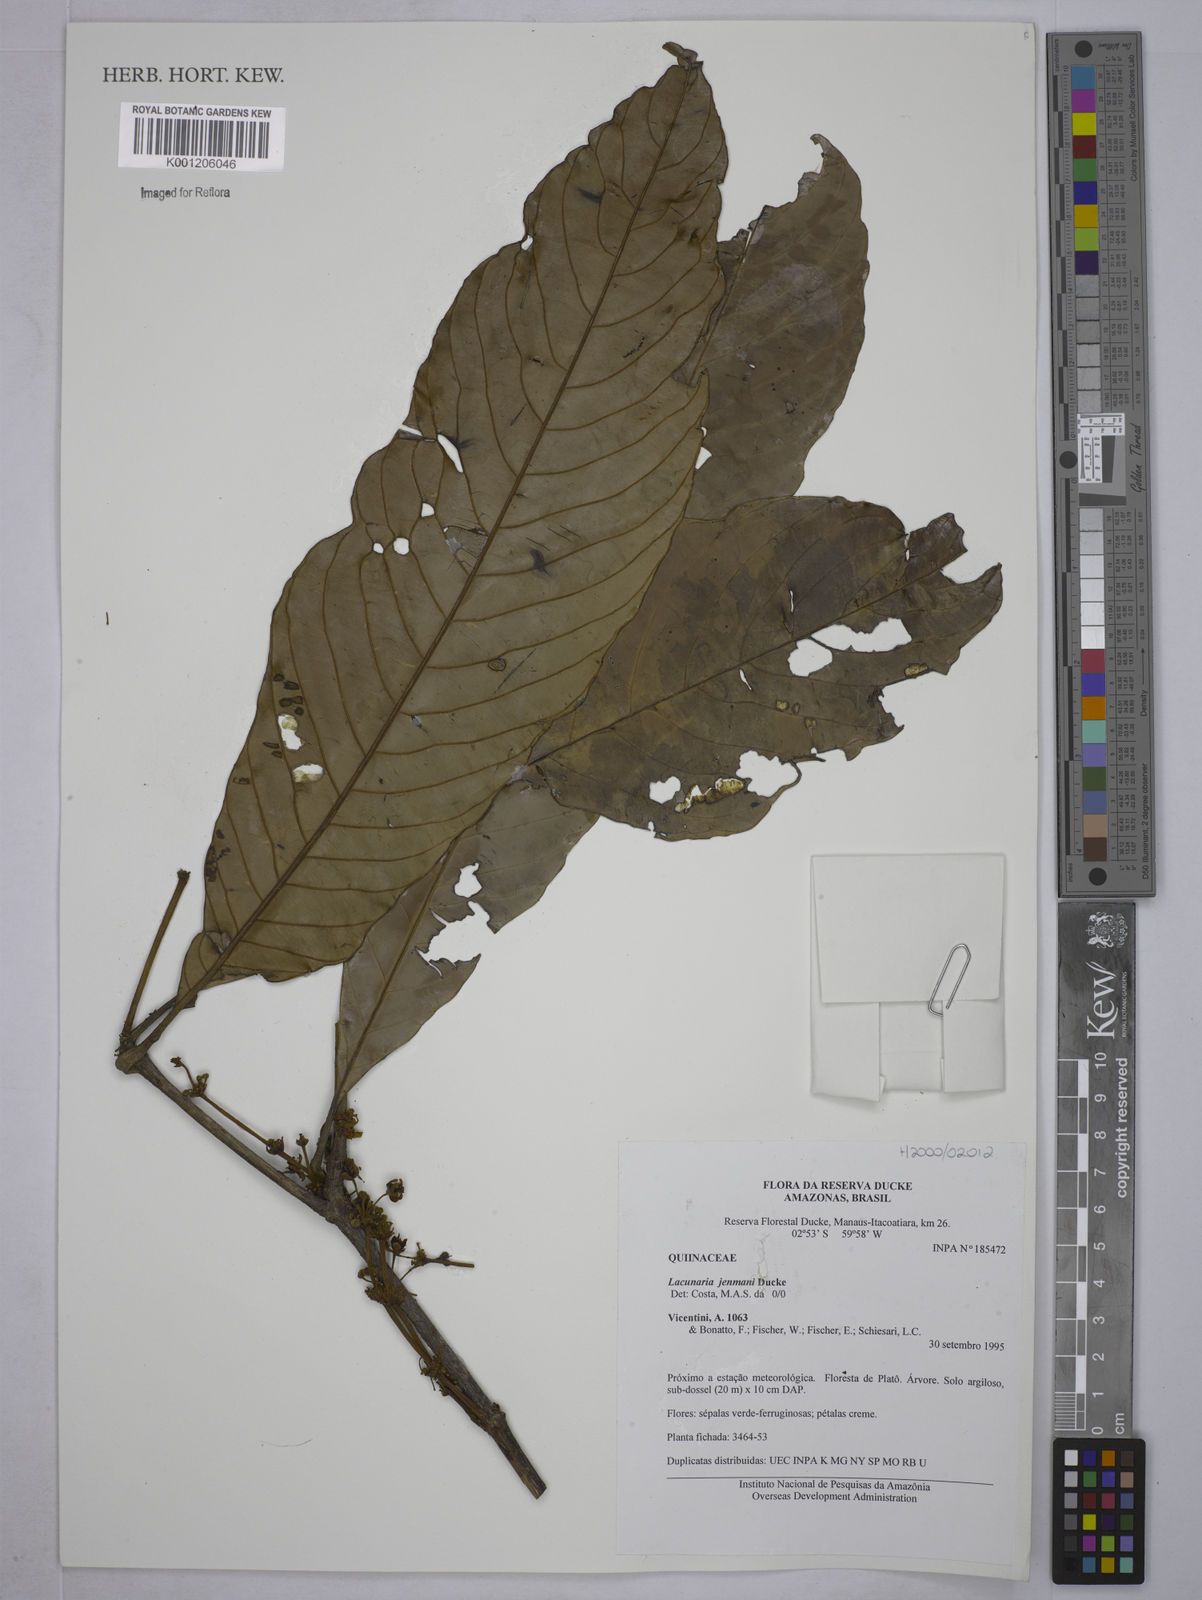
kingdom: Plantae
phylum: Tracheophyta
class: Magnoliopsida
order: Malpighiales
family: Quiinaceae
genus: Lacunaria
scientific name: Lacunaria jenmanii
